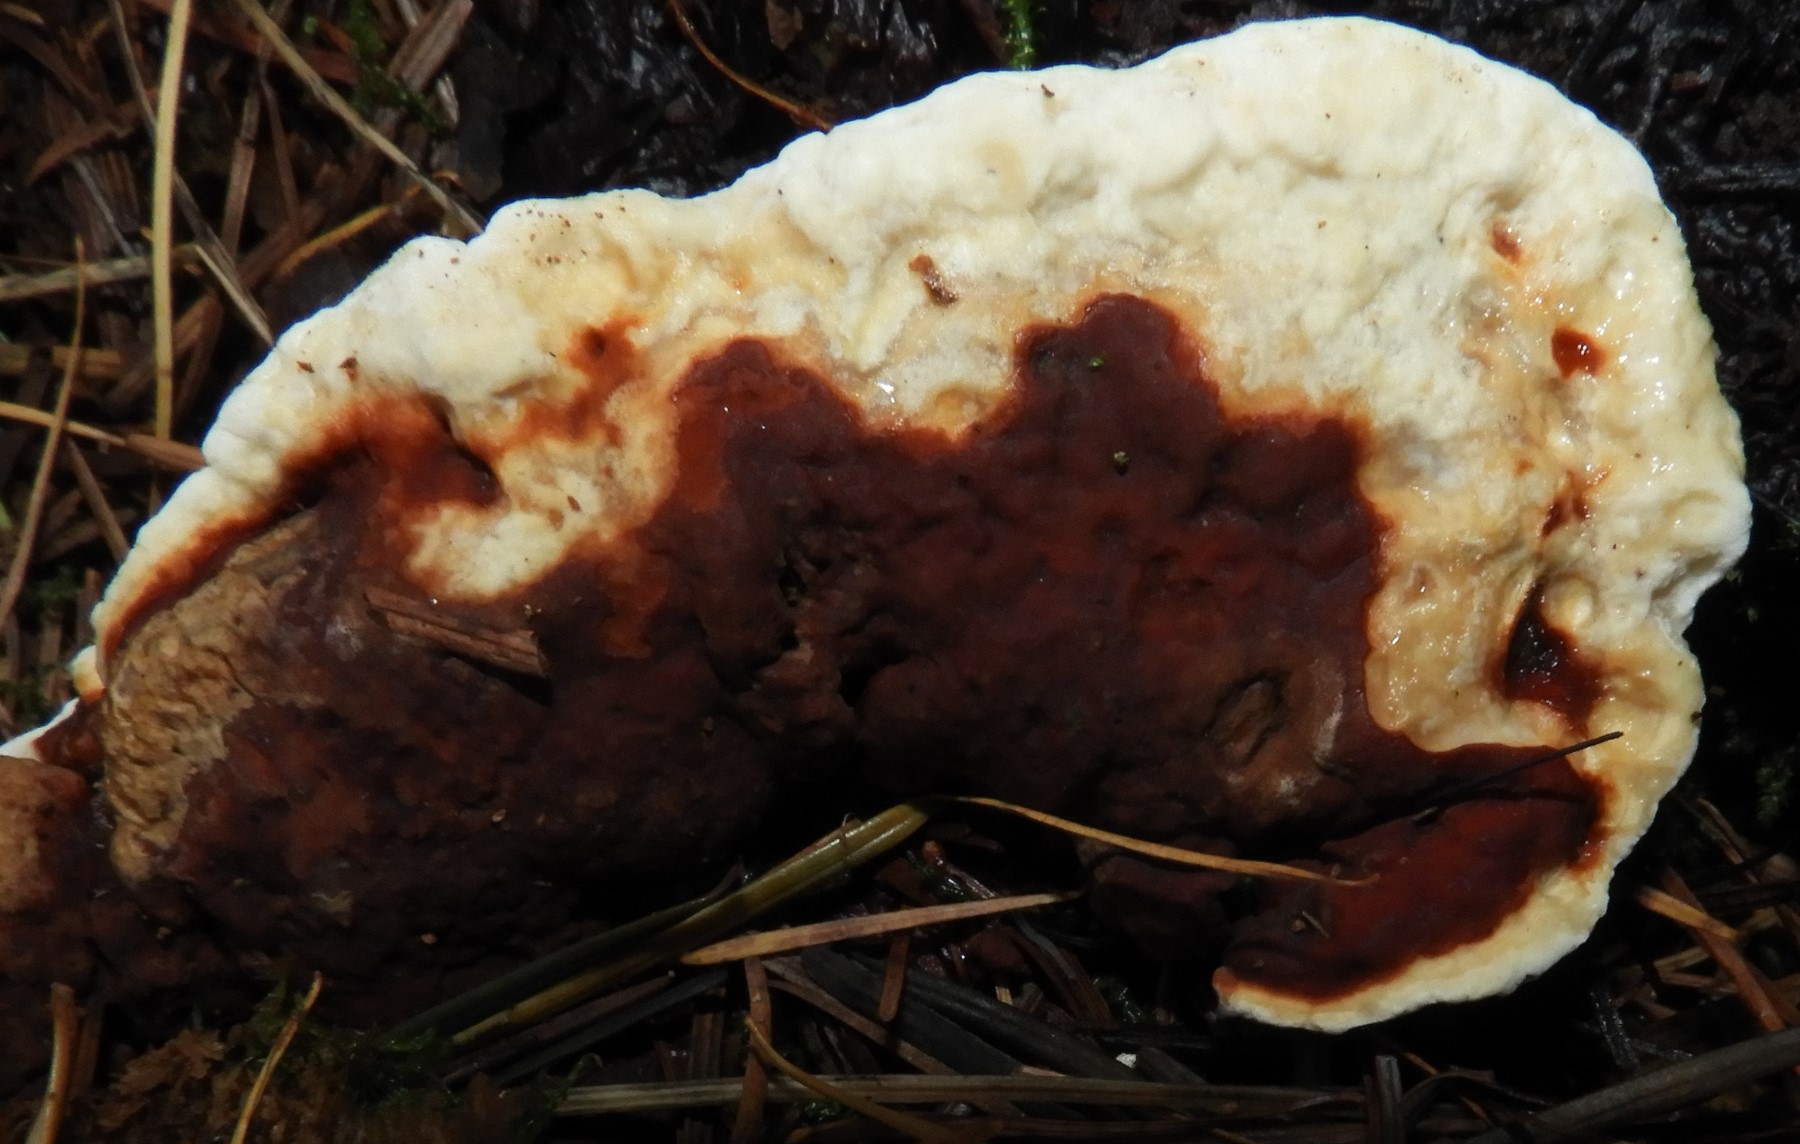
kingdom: Fungi
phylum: Basidiomycota
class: Agaricomycetes
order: Russulales
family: Bondarzewiaceae
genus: Heterobasidion
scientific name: Heterobasidion annosum
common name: almindelig rodfordærver
